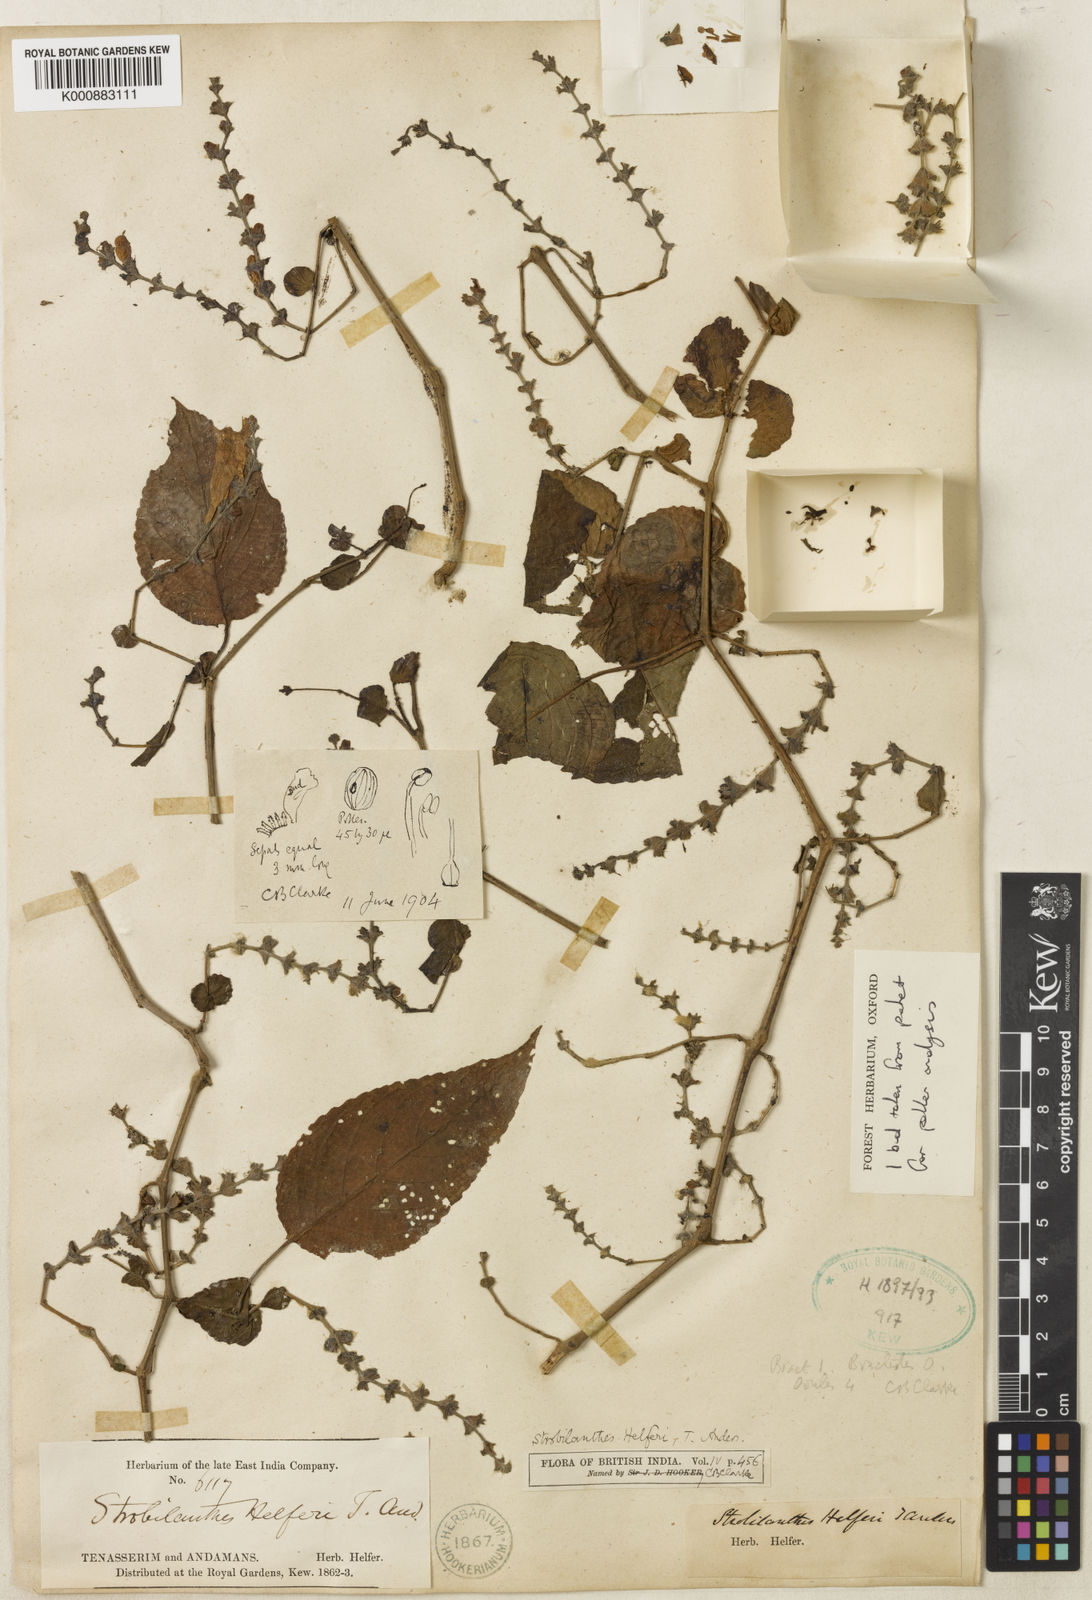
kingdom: Plantae
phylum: Tracheophyta
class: Magnoliopsida
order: Lamiales
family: Acanthaceae
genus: Strobilanthes
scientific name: Strobilanthes helferi
